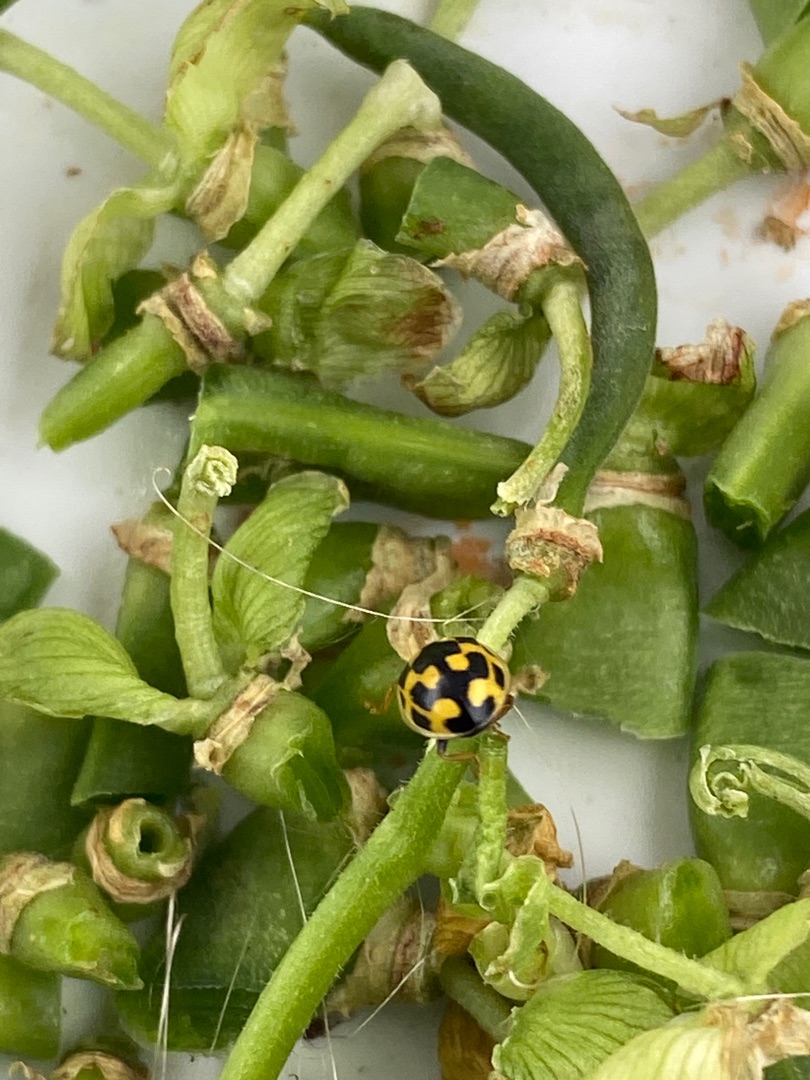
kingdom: Animalia
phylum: Arthropoda
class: Insecta
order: Coleoptera
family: Coccinellidae
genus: Propylaea
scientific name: Propylaea quatuordecimpunctata
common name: Skakbræt
